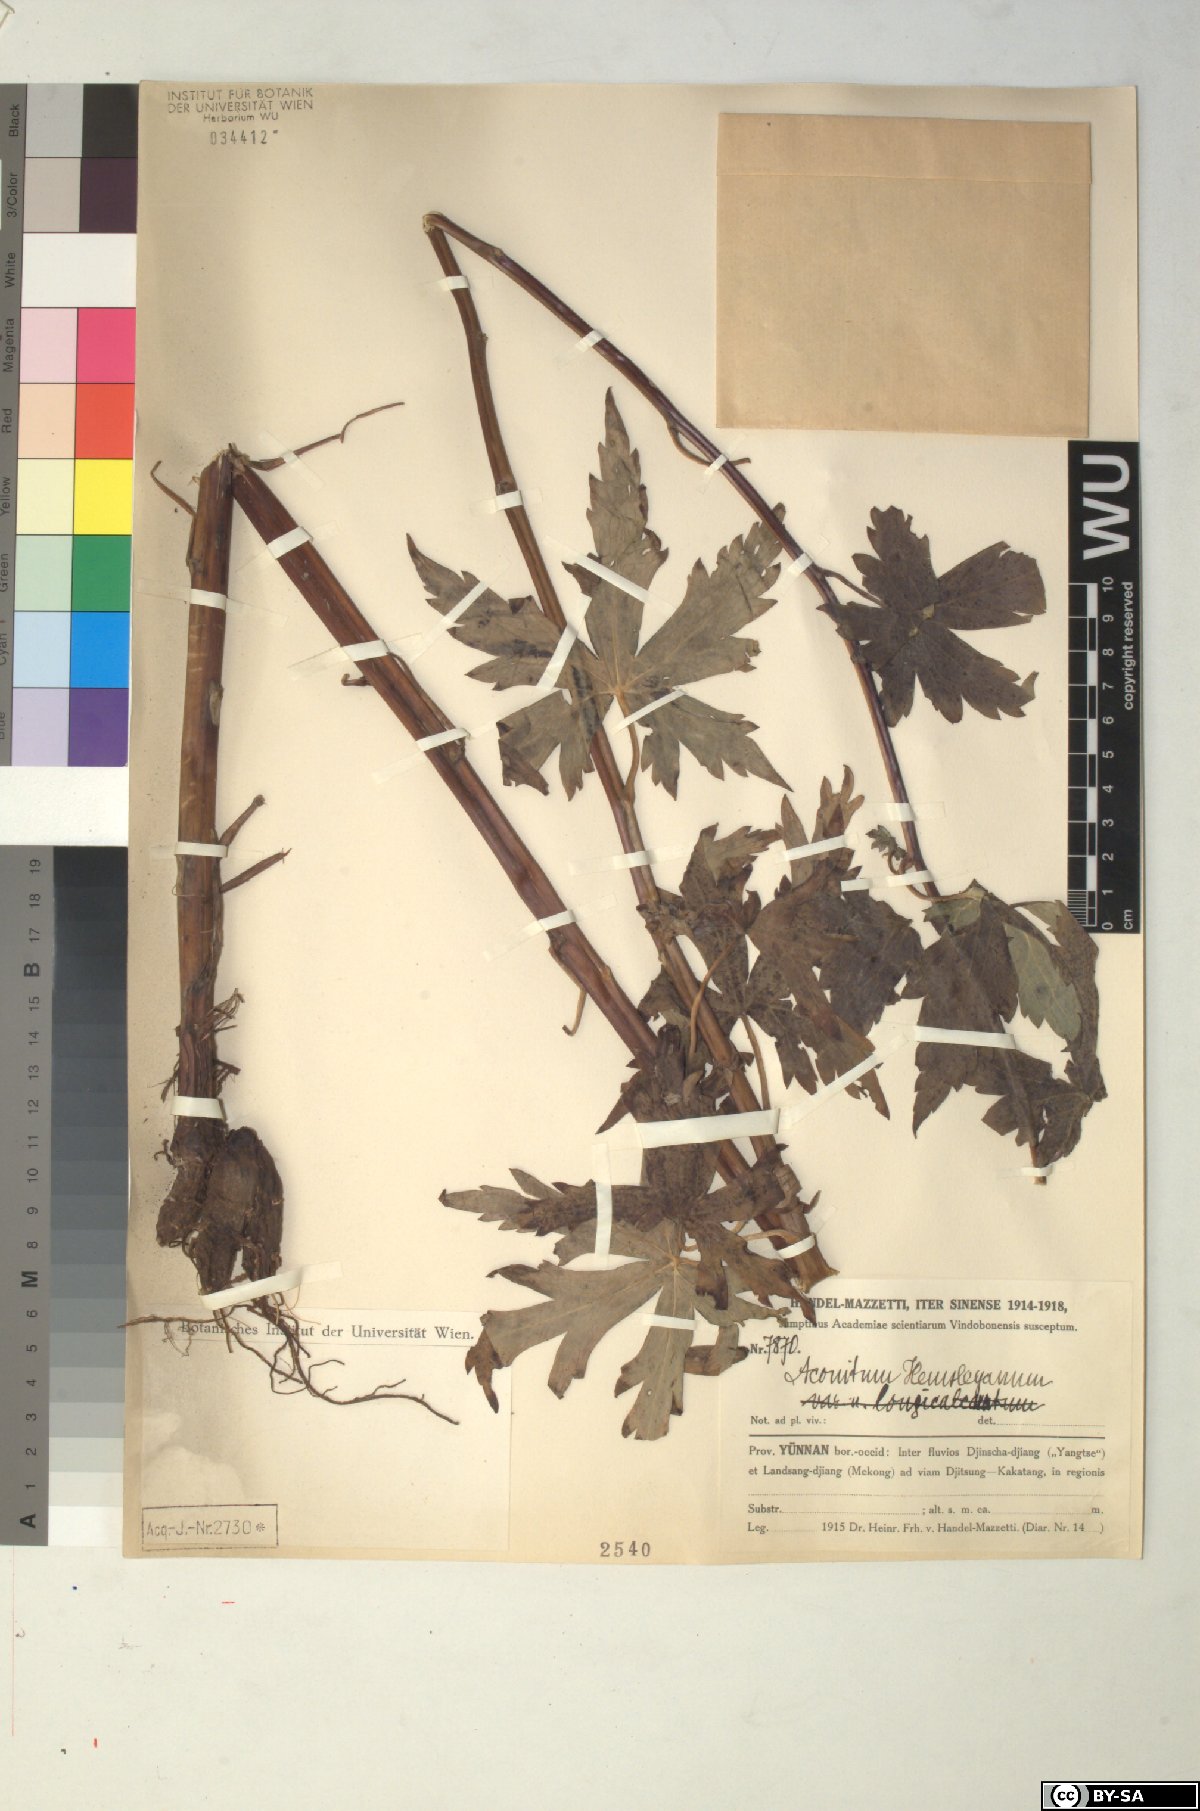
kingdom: Plantae
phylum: Tracheophyta
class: Magnoliopsida
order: Ranunculales
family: Ranunculaceae
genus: Aconitum
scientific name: Aconitum stapfianum
